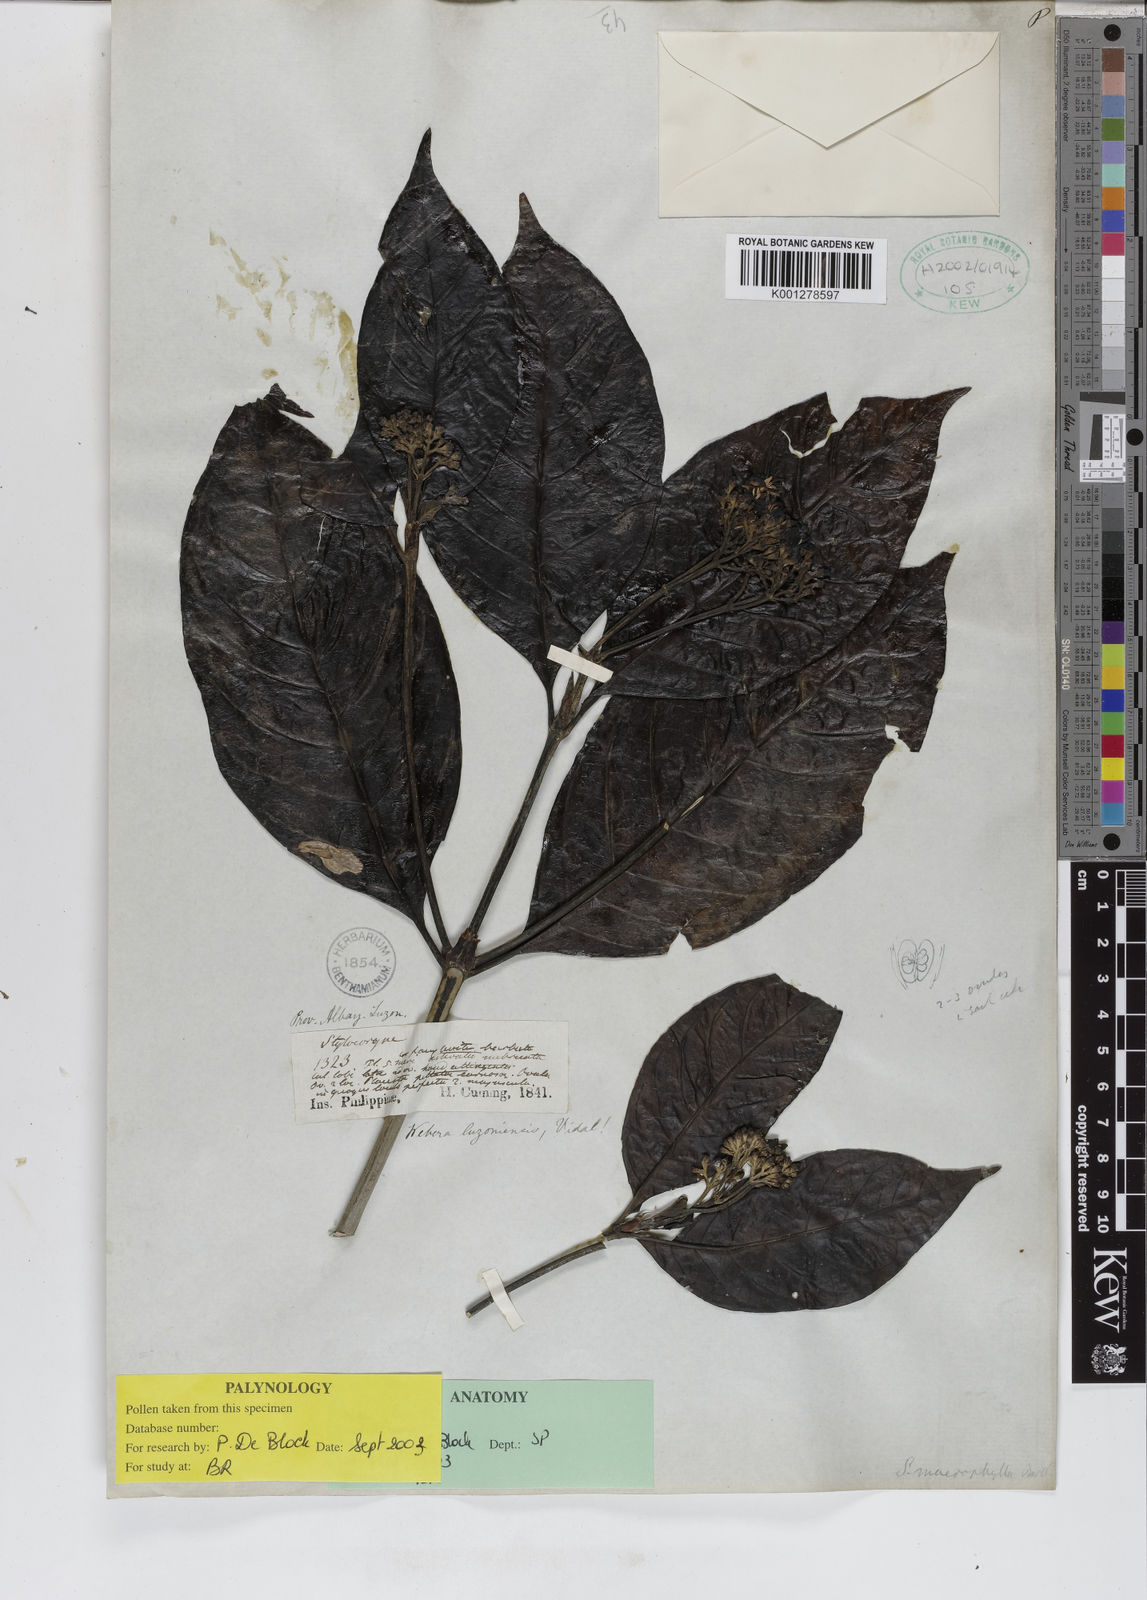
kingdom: Plantae
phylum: Tracheophyta
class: Magnoliopsida
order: Gentianales
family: Rubiaceae
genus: Tarenna
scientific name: Tarenna luzoniensis
